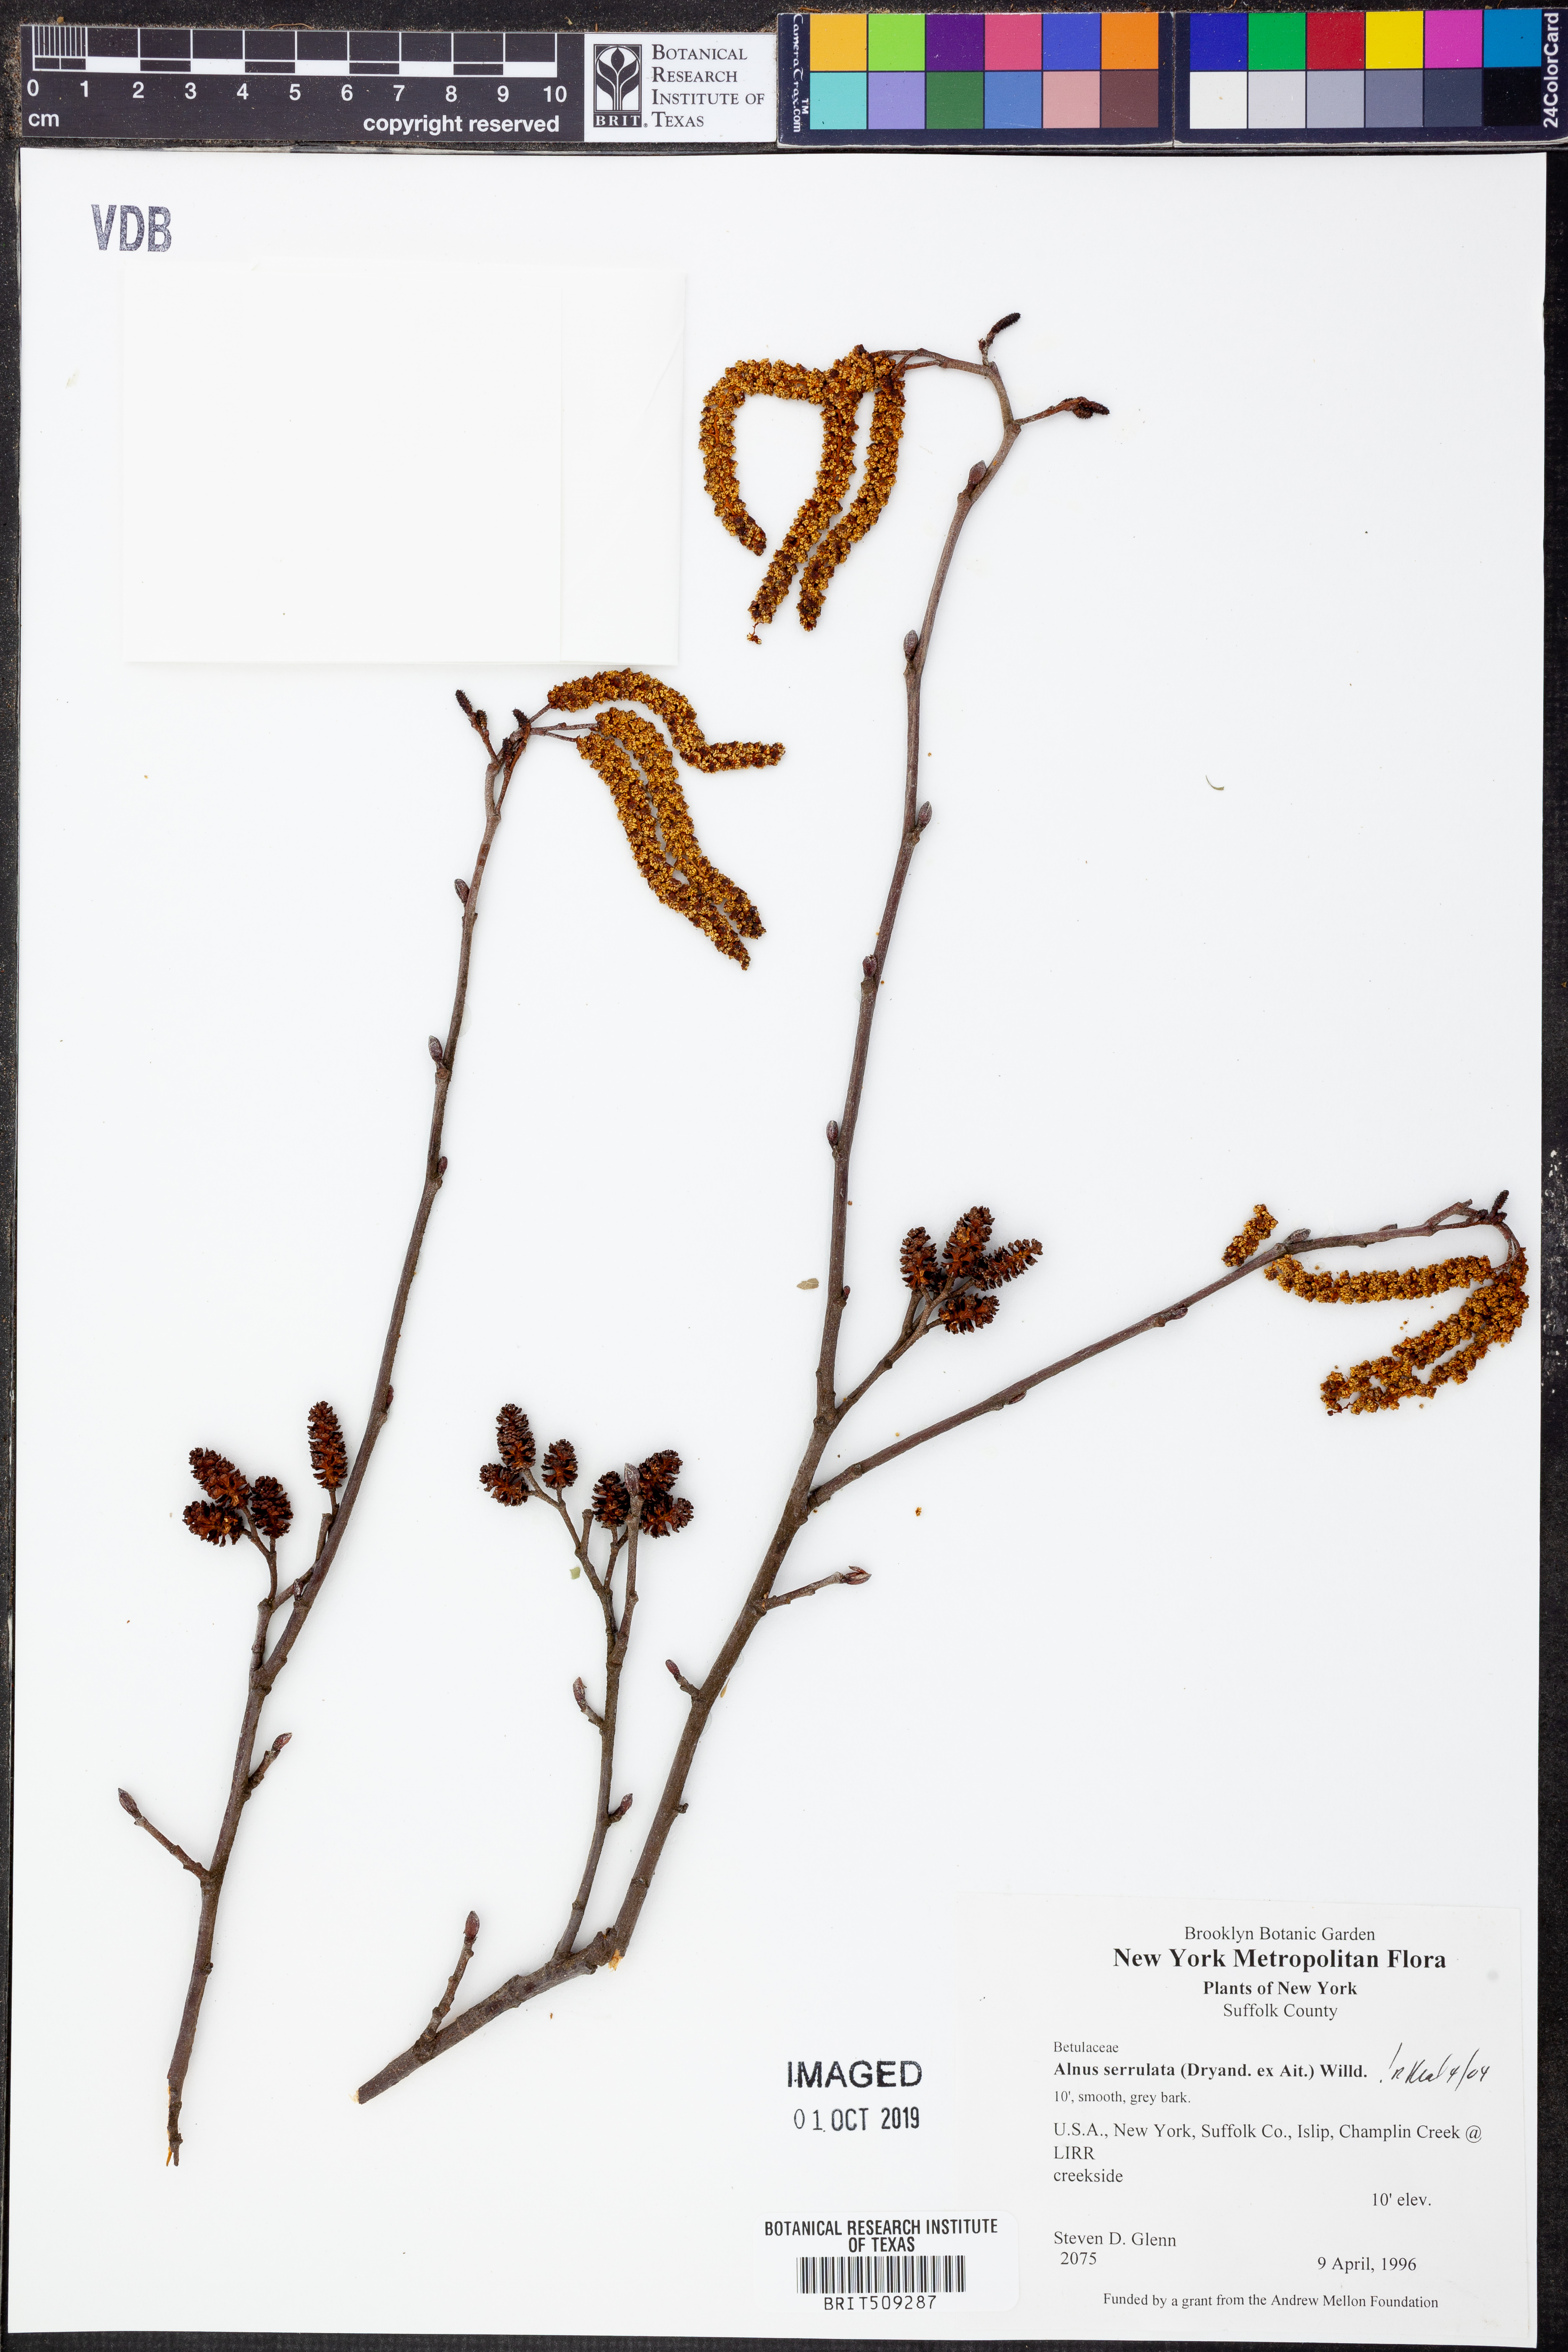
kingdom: Plantae
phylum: Tracheophyta
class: Magnoliopsida
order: Fagales
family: Betulaceae
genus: Alnus
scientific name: Alnus serrulata
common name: Hazel alder
